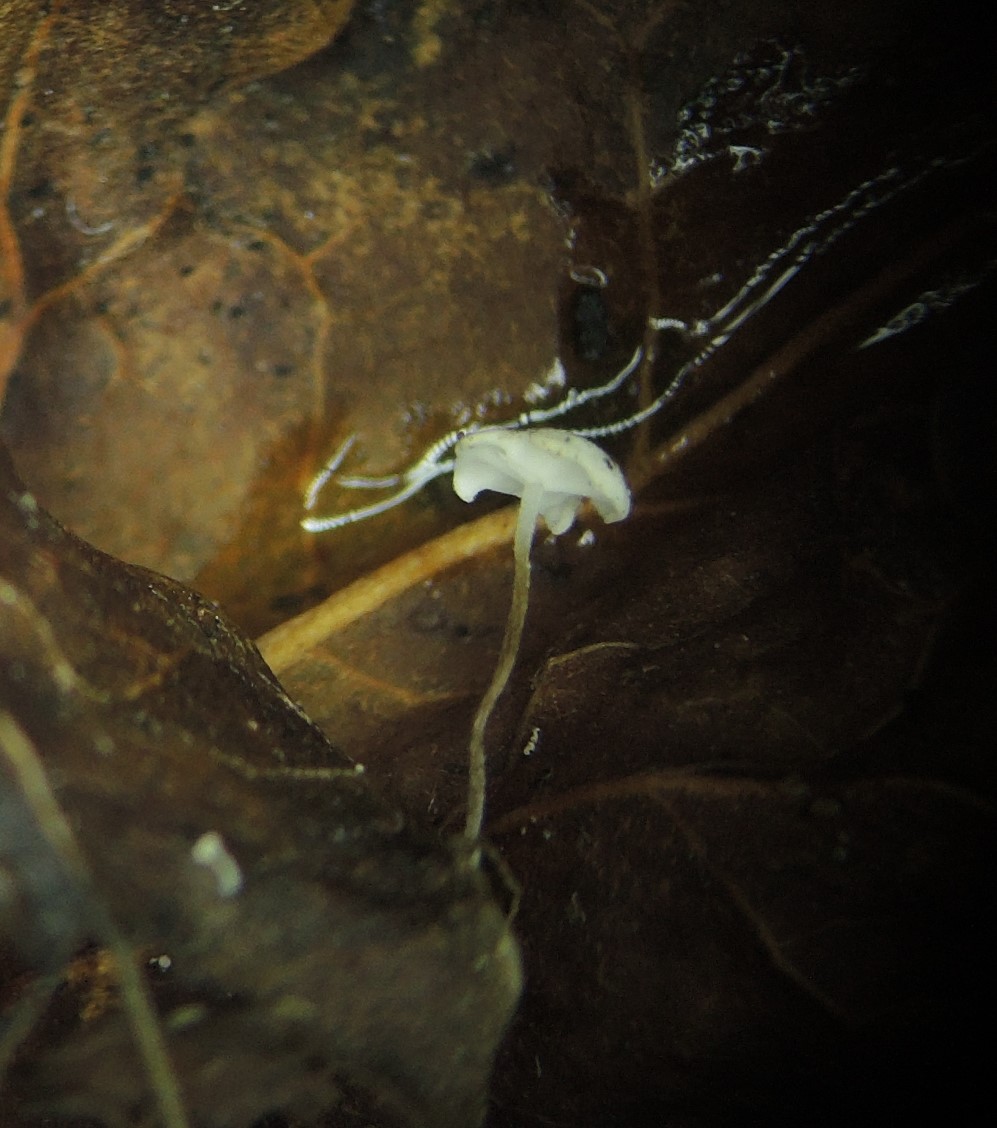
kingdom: Fungi
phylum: Basidiomycota
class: Agaricomycetes
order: Agaricales
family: Marasmiaceae
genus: Marasmius
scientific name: Marasmius epiphylloides
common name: vedbend-bruskhat
